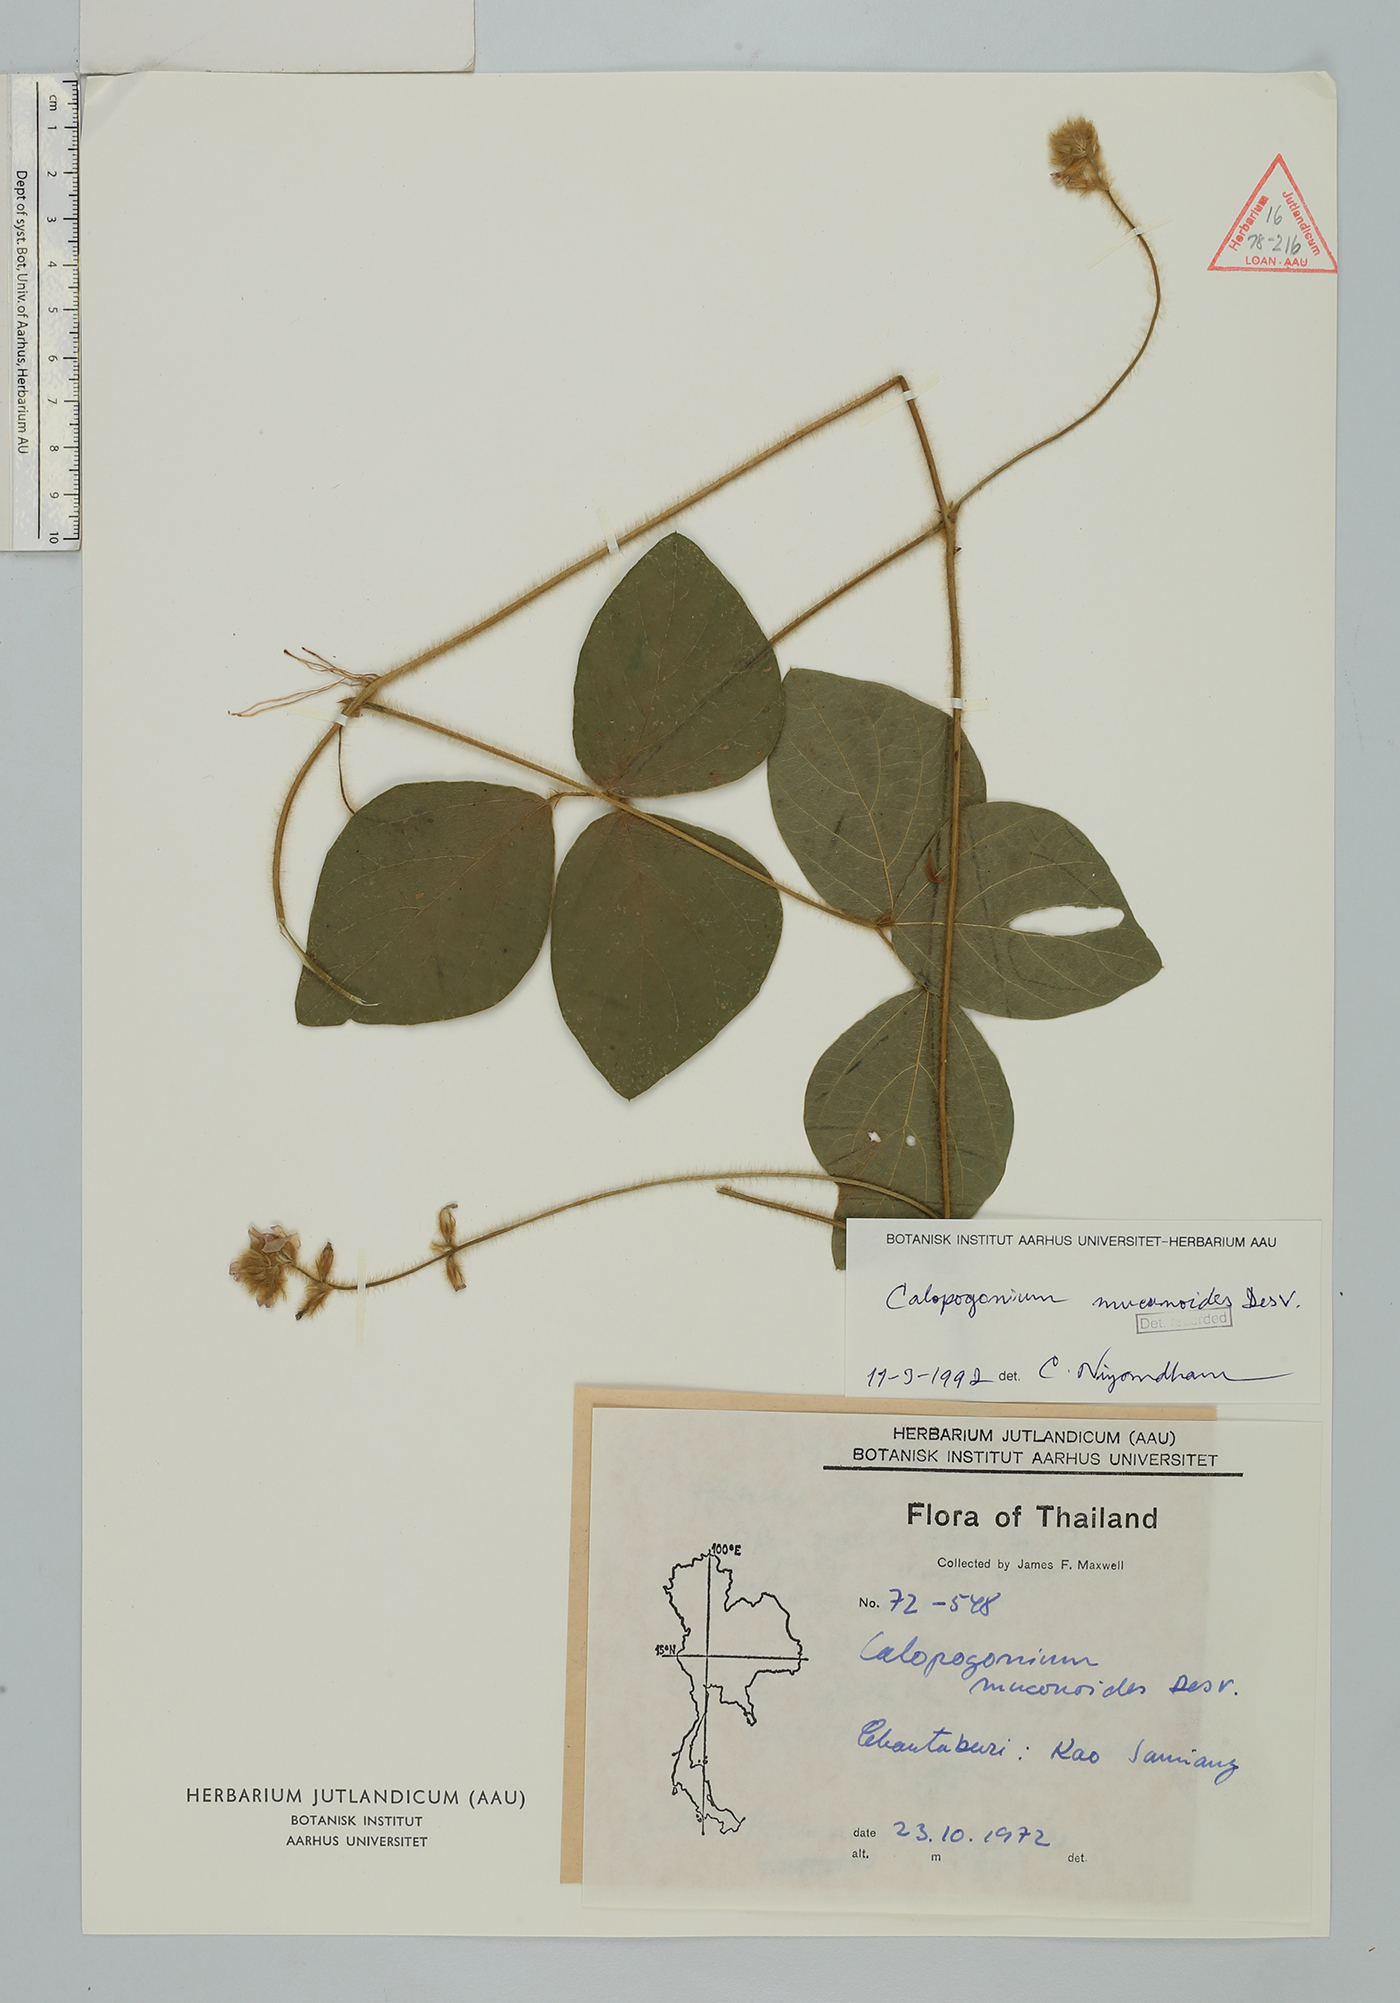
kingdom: Plantae
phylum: Tracheophyta
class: Magnoliopsida
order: Fabales
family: Fabaceae
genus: Calopogonium
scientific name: Calopogonium mucunoides
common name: Calopo
